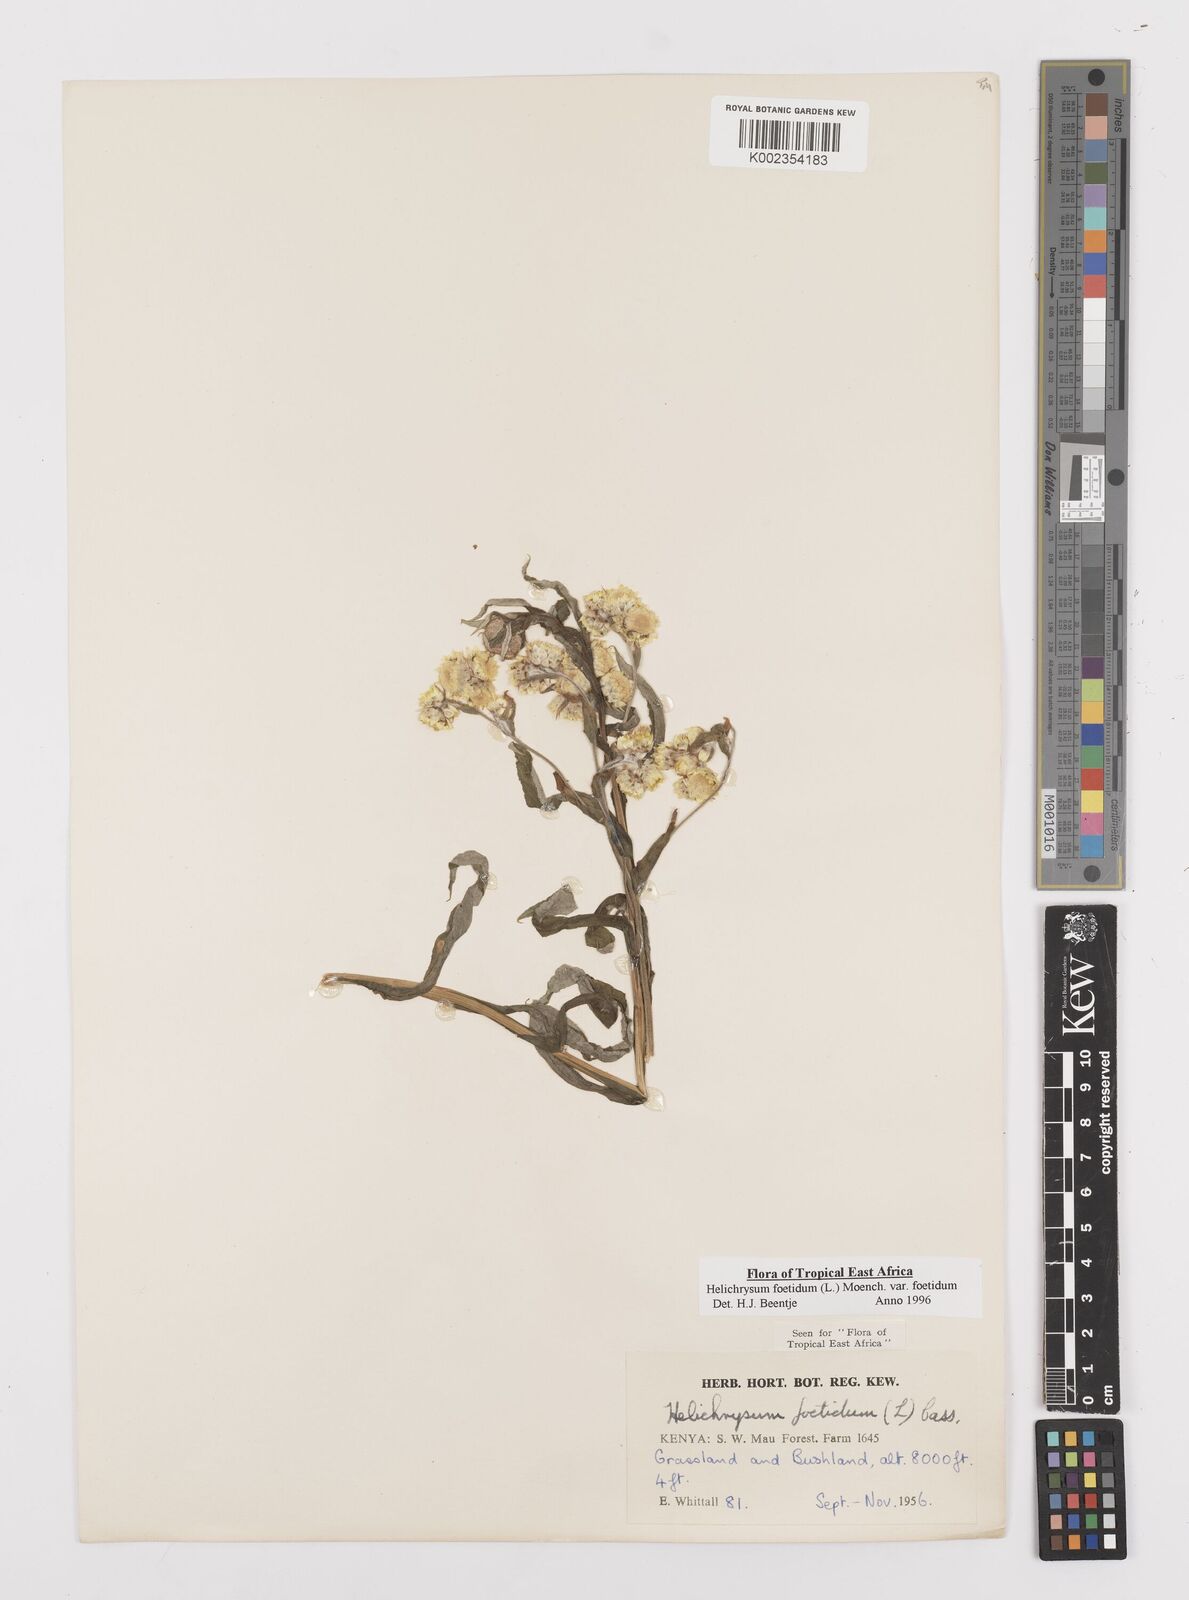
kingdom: Plantae
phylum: Tracheophyta
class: Magnoliopsida
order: Asterales
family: Asteraceae
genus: Helichrysum
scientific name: Helichrysum foetidum
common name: Stinking everlasting
